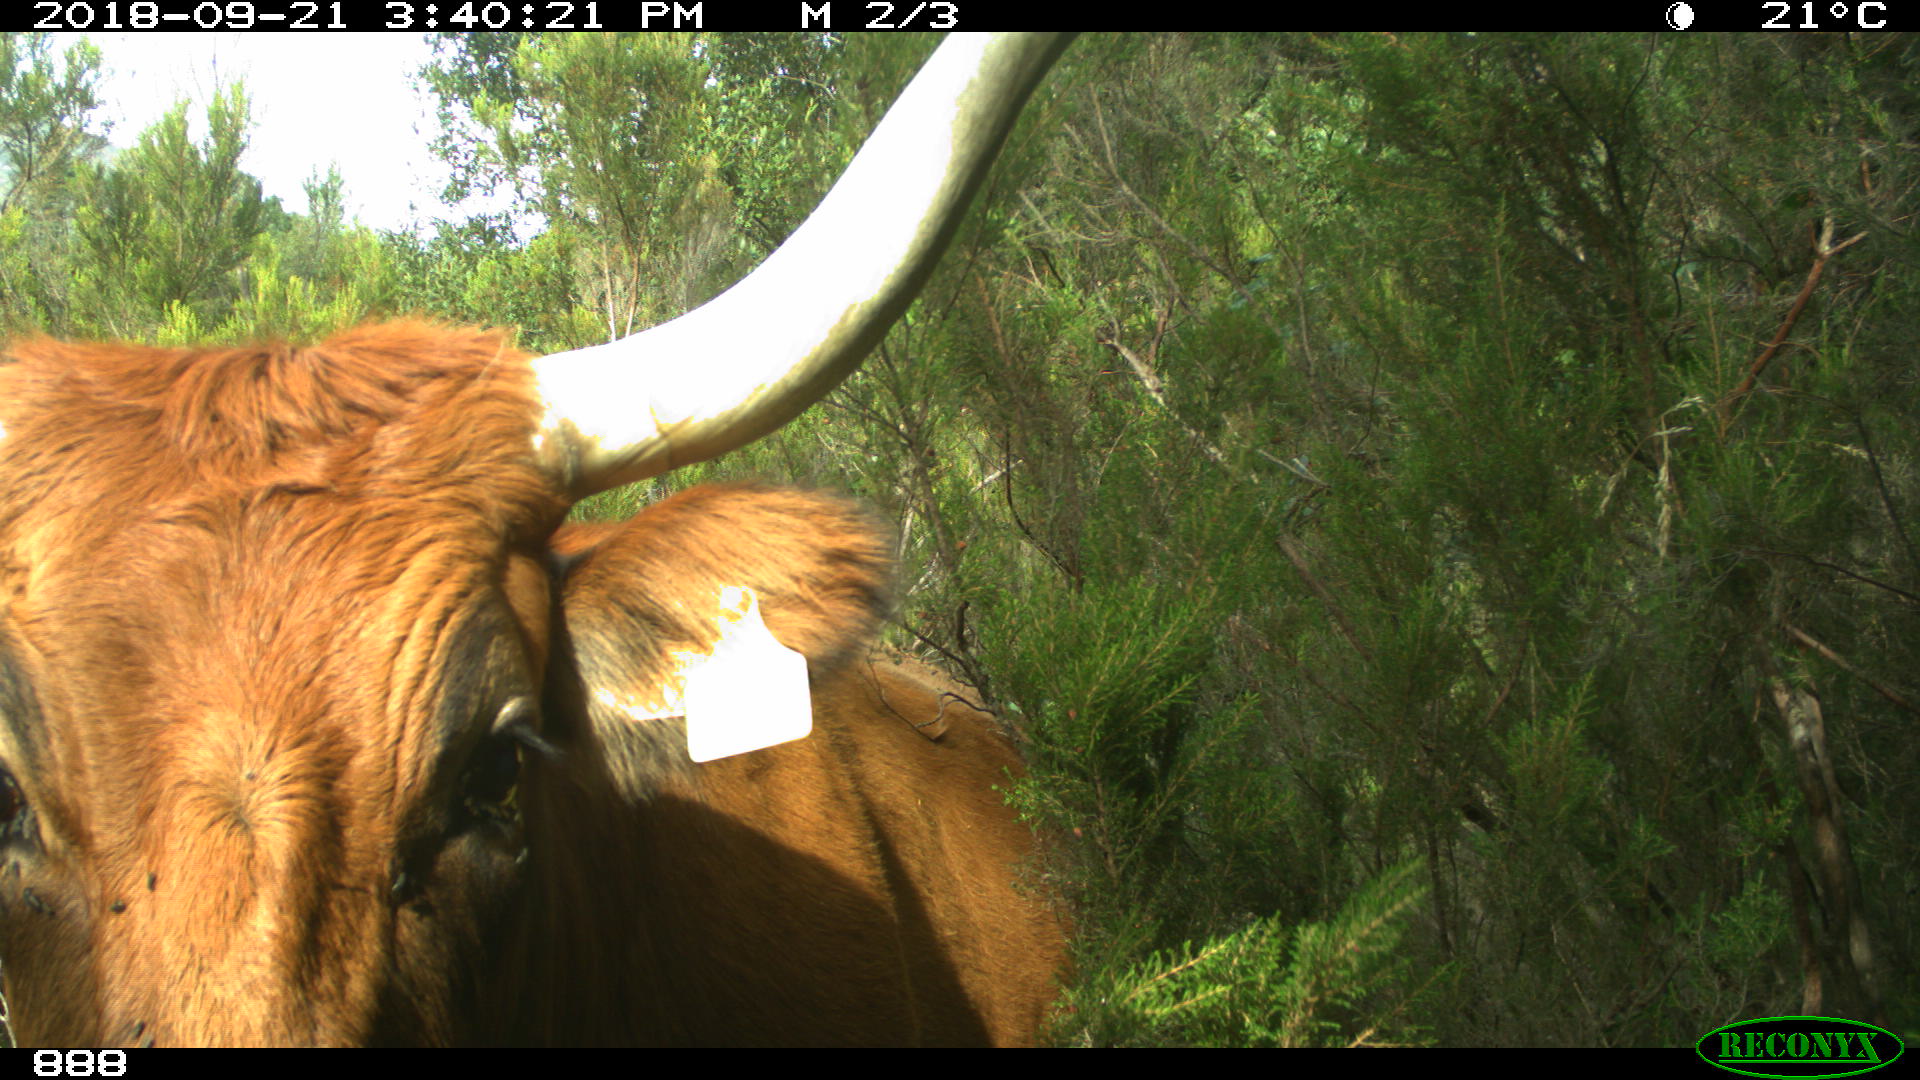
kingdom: Animalia
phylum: Chordata
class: Mammalia
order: Artiodactyla
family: Bovidae
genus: Bos
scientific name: Bos taurus
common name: Domesticated cattle
